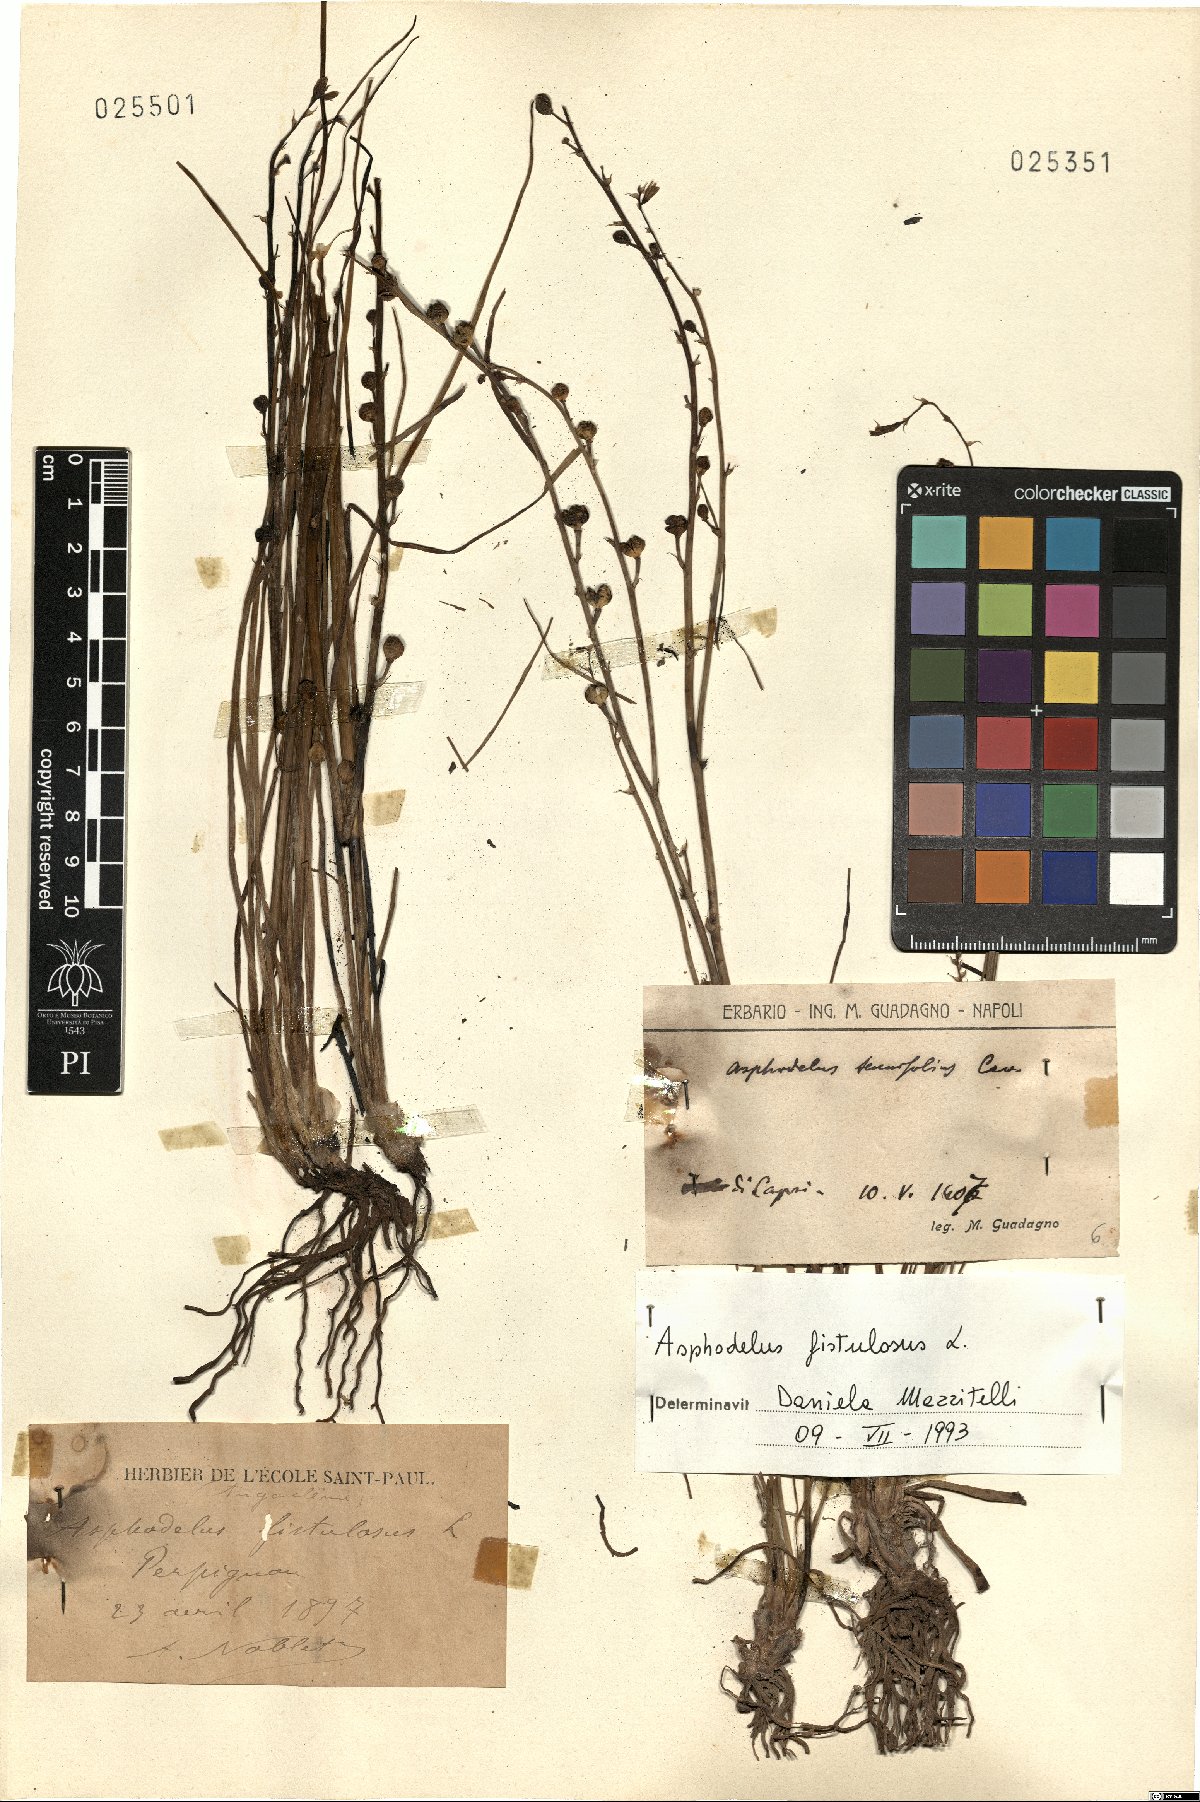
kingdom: Plantae
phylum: Tracheophyta
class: Liliopsida
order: Asparagales
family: Asphodelaceae
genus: Asphodelus
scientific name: Asphodelus fistulosus
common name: Onionweed
